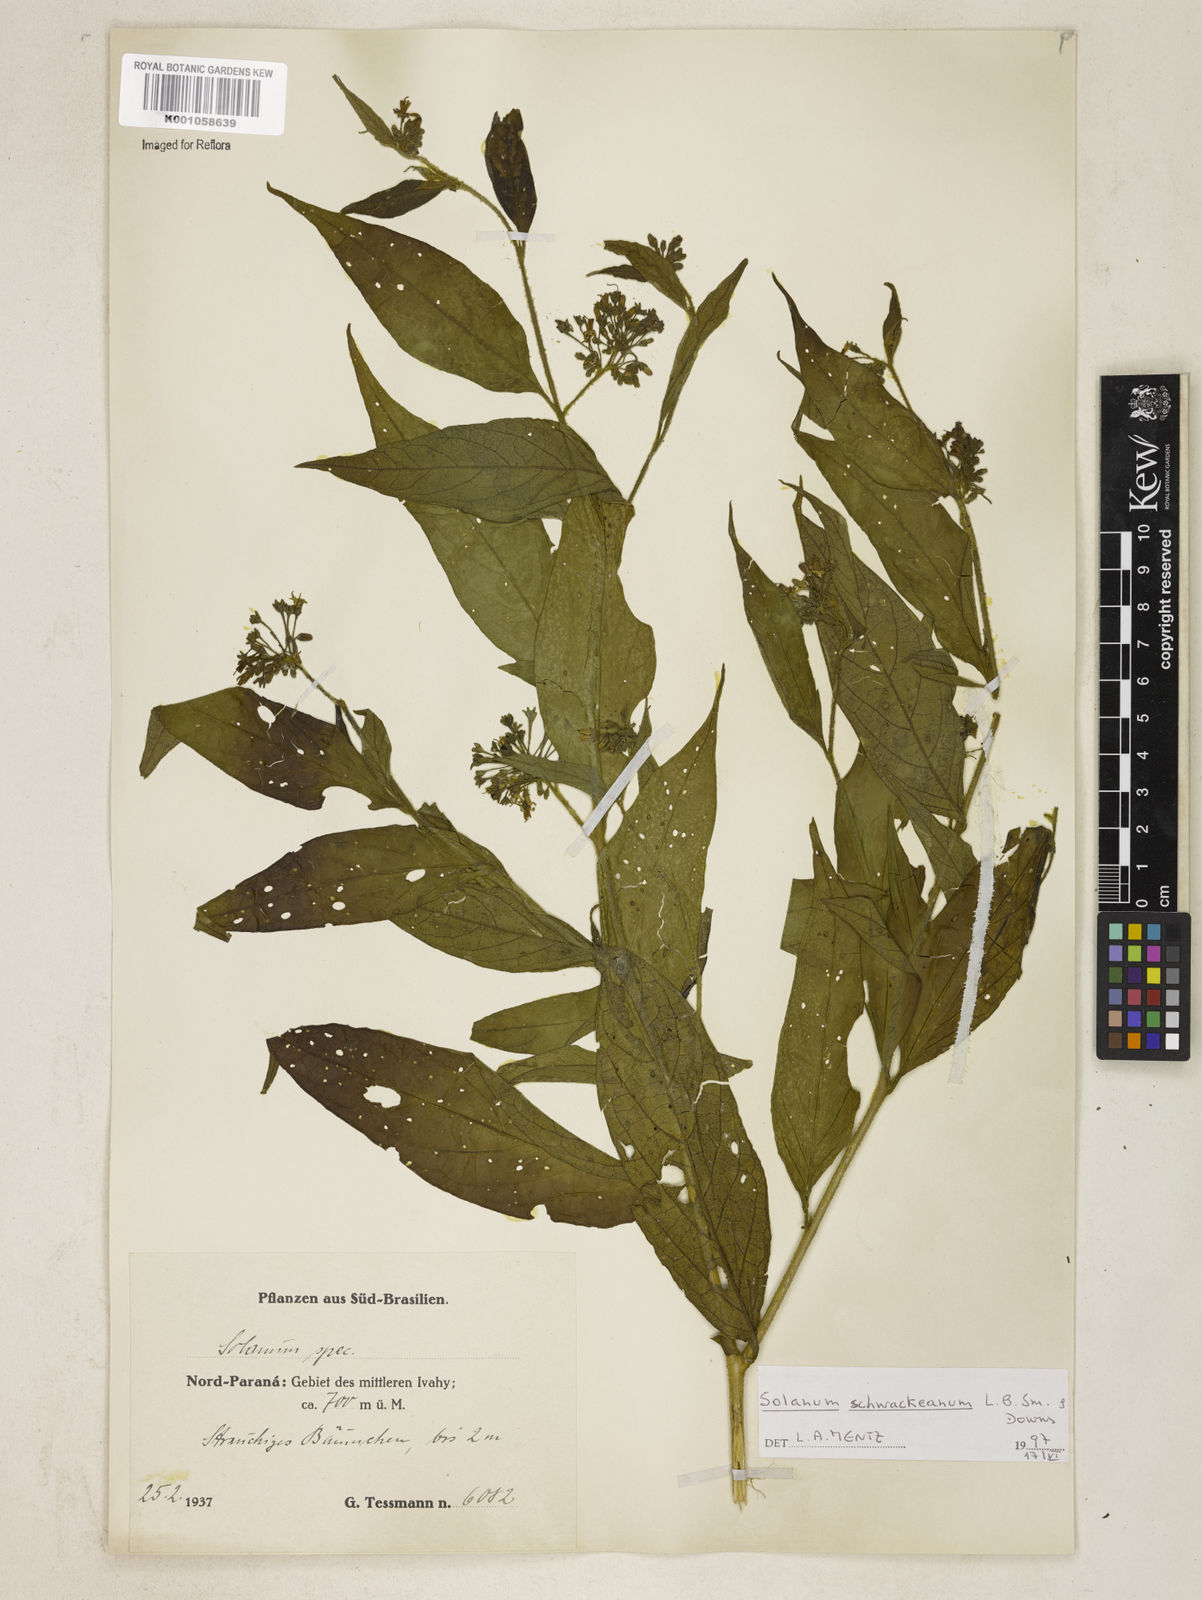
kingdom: Plantae
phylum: Tracheophyta
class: Magnoliopsida
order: Solanales
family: Solanaceae
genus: Solanum
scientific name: Solanum schwackeanum
